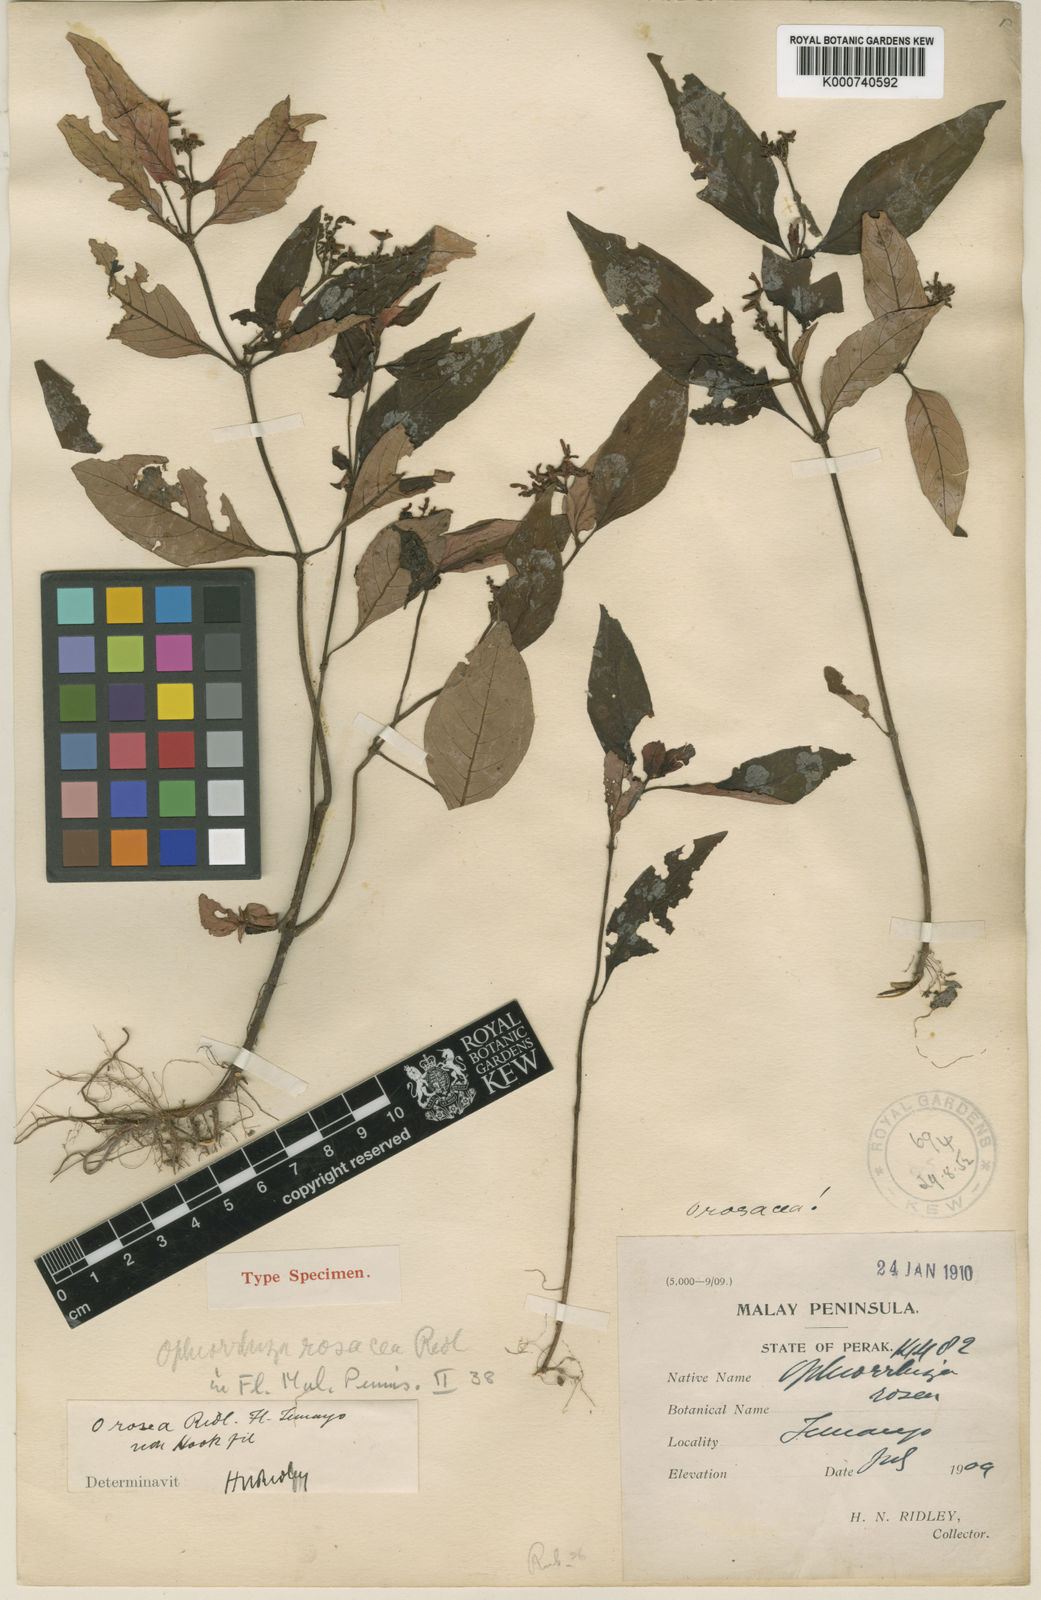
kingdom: Plantae
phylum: Tracheophyta
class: Magnoliopsida
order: Gentianales
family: Rubiaceae
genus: Ophiorrhiza
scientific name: Ophiorrhiza rosacea
